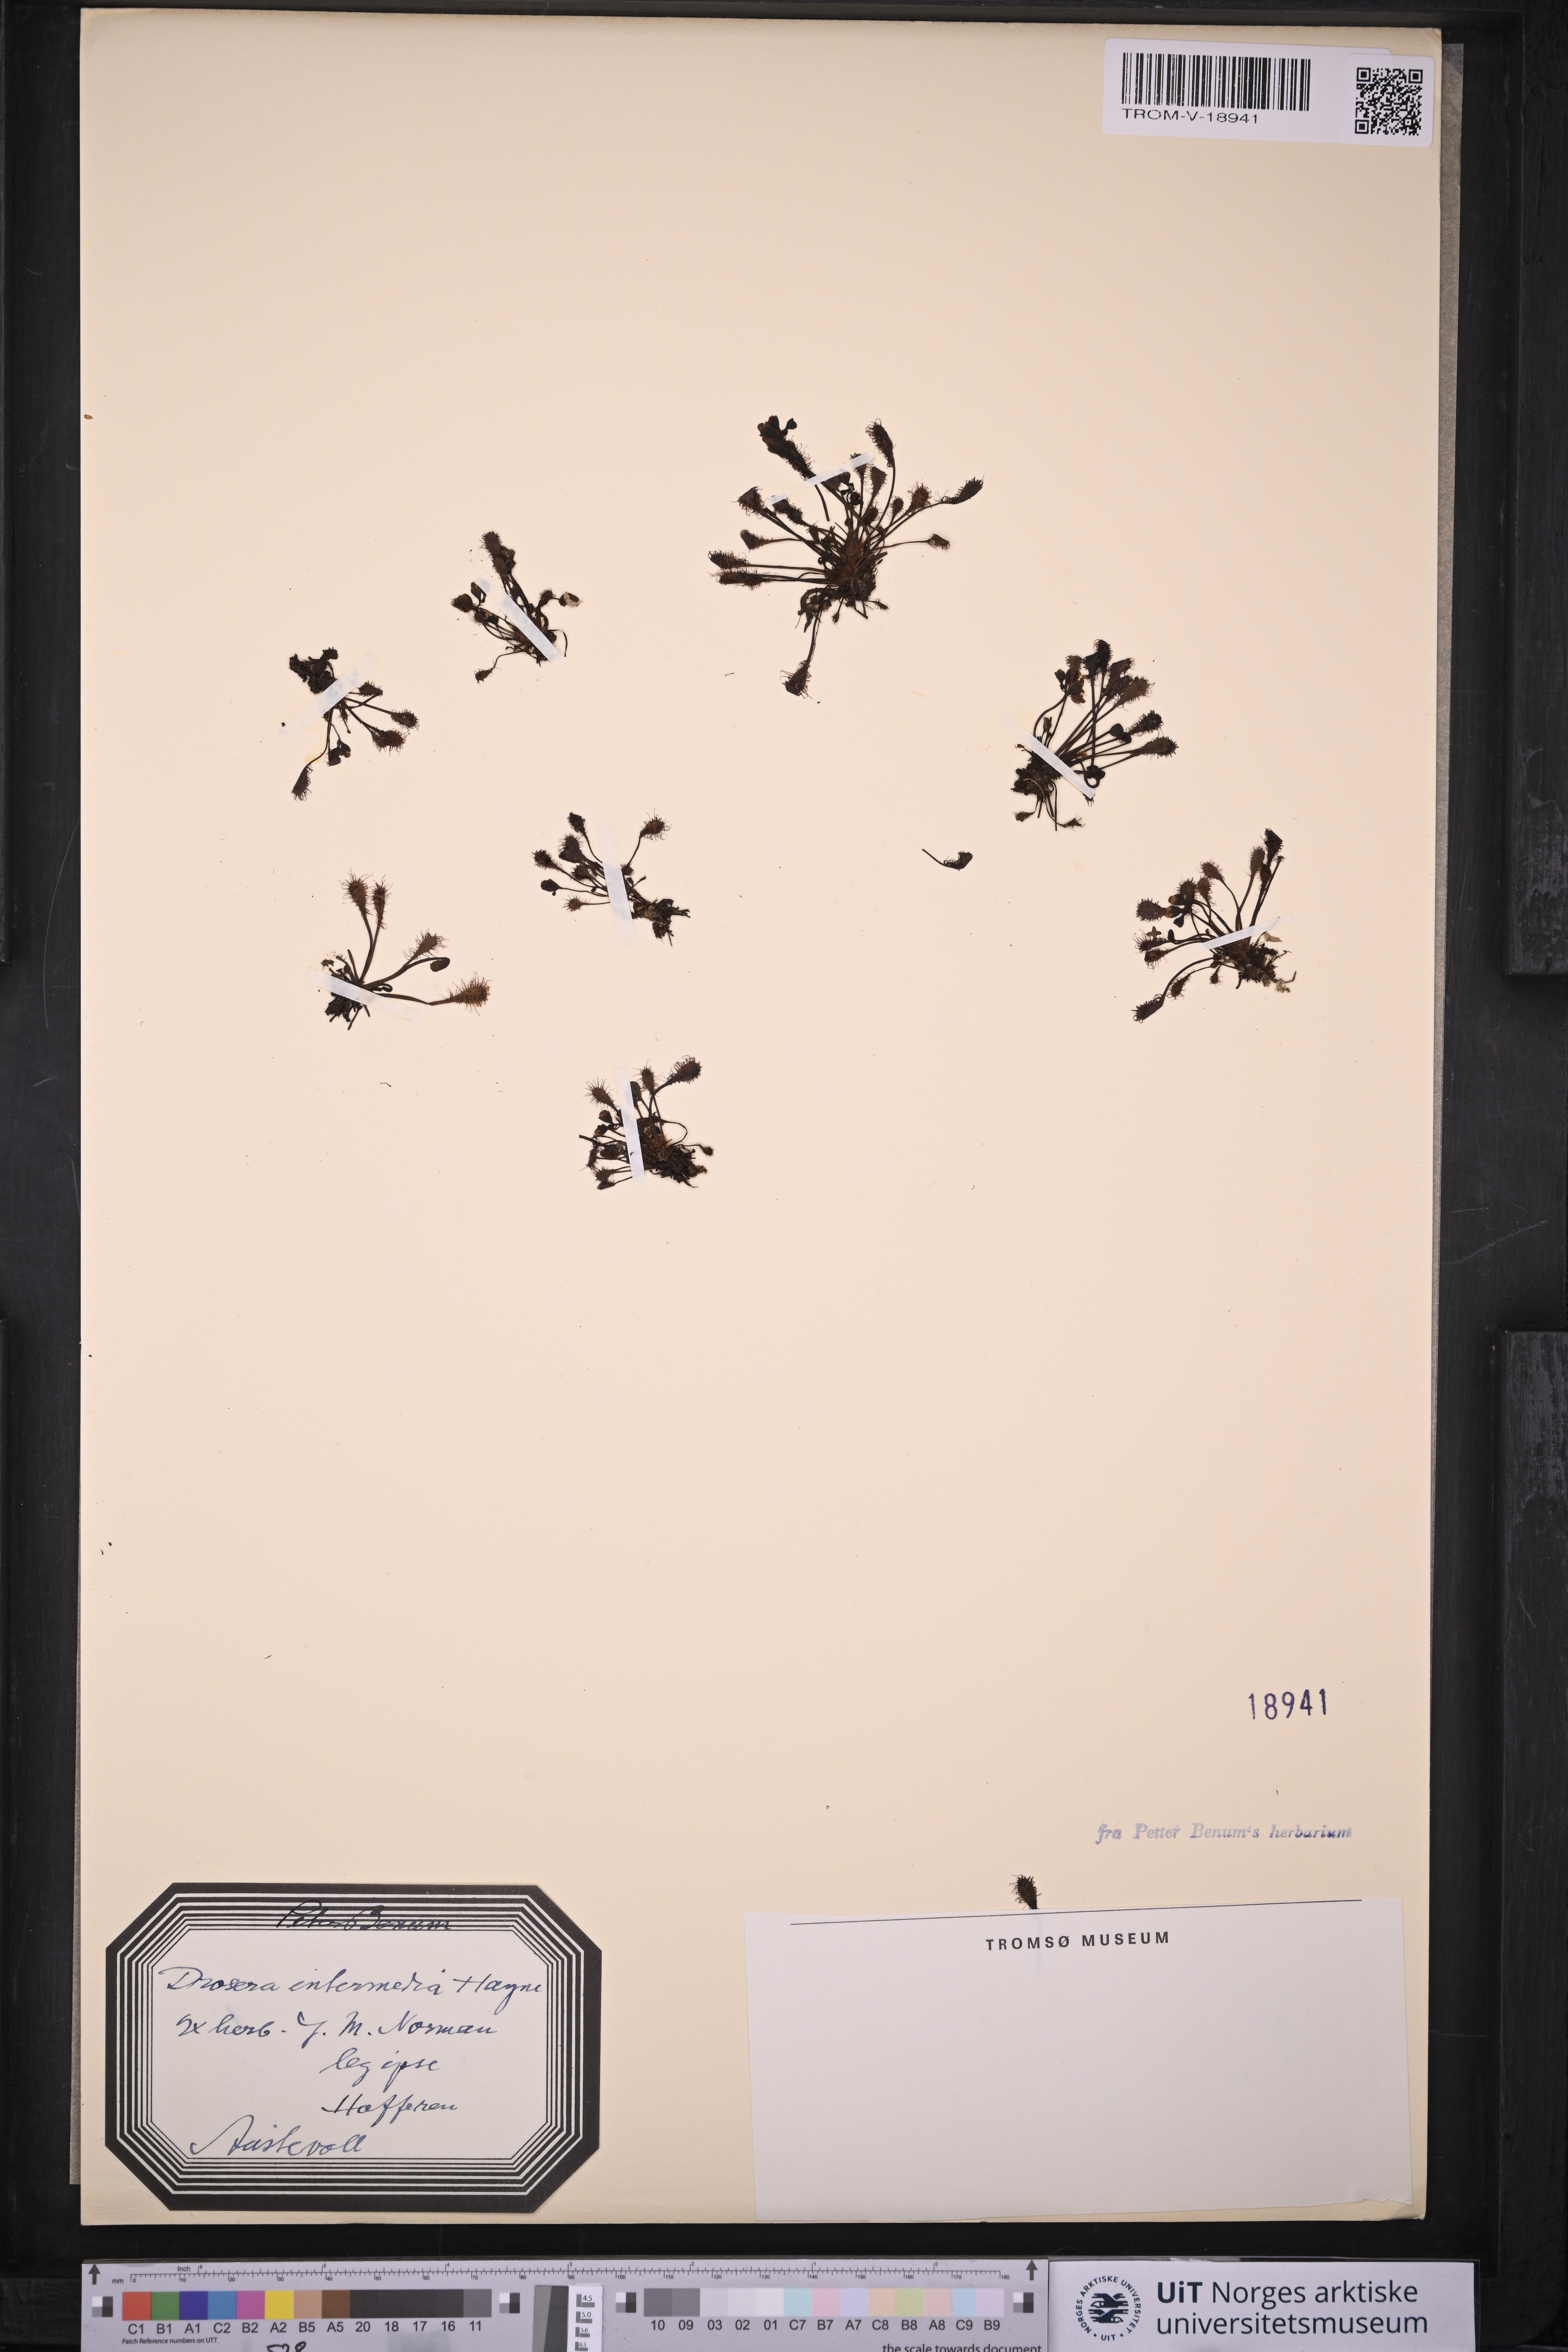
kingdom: Plantae
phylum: Tracheophyta
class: Magnoliopsida
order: Caryophyllales
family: Droseraceae
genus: Drosera
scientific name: Drosera intermedia
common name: Oblong-leaved sundew
